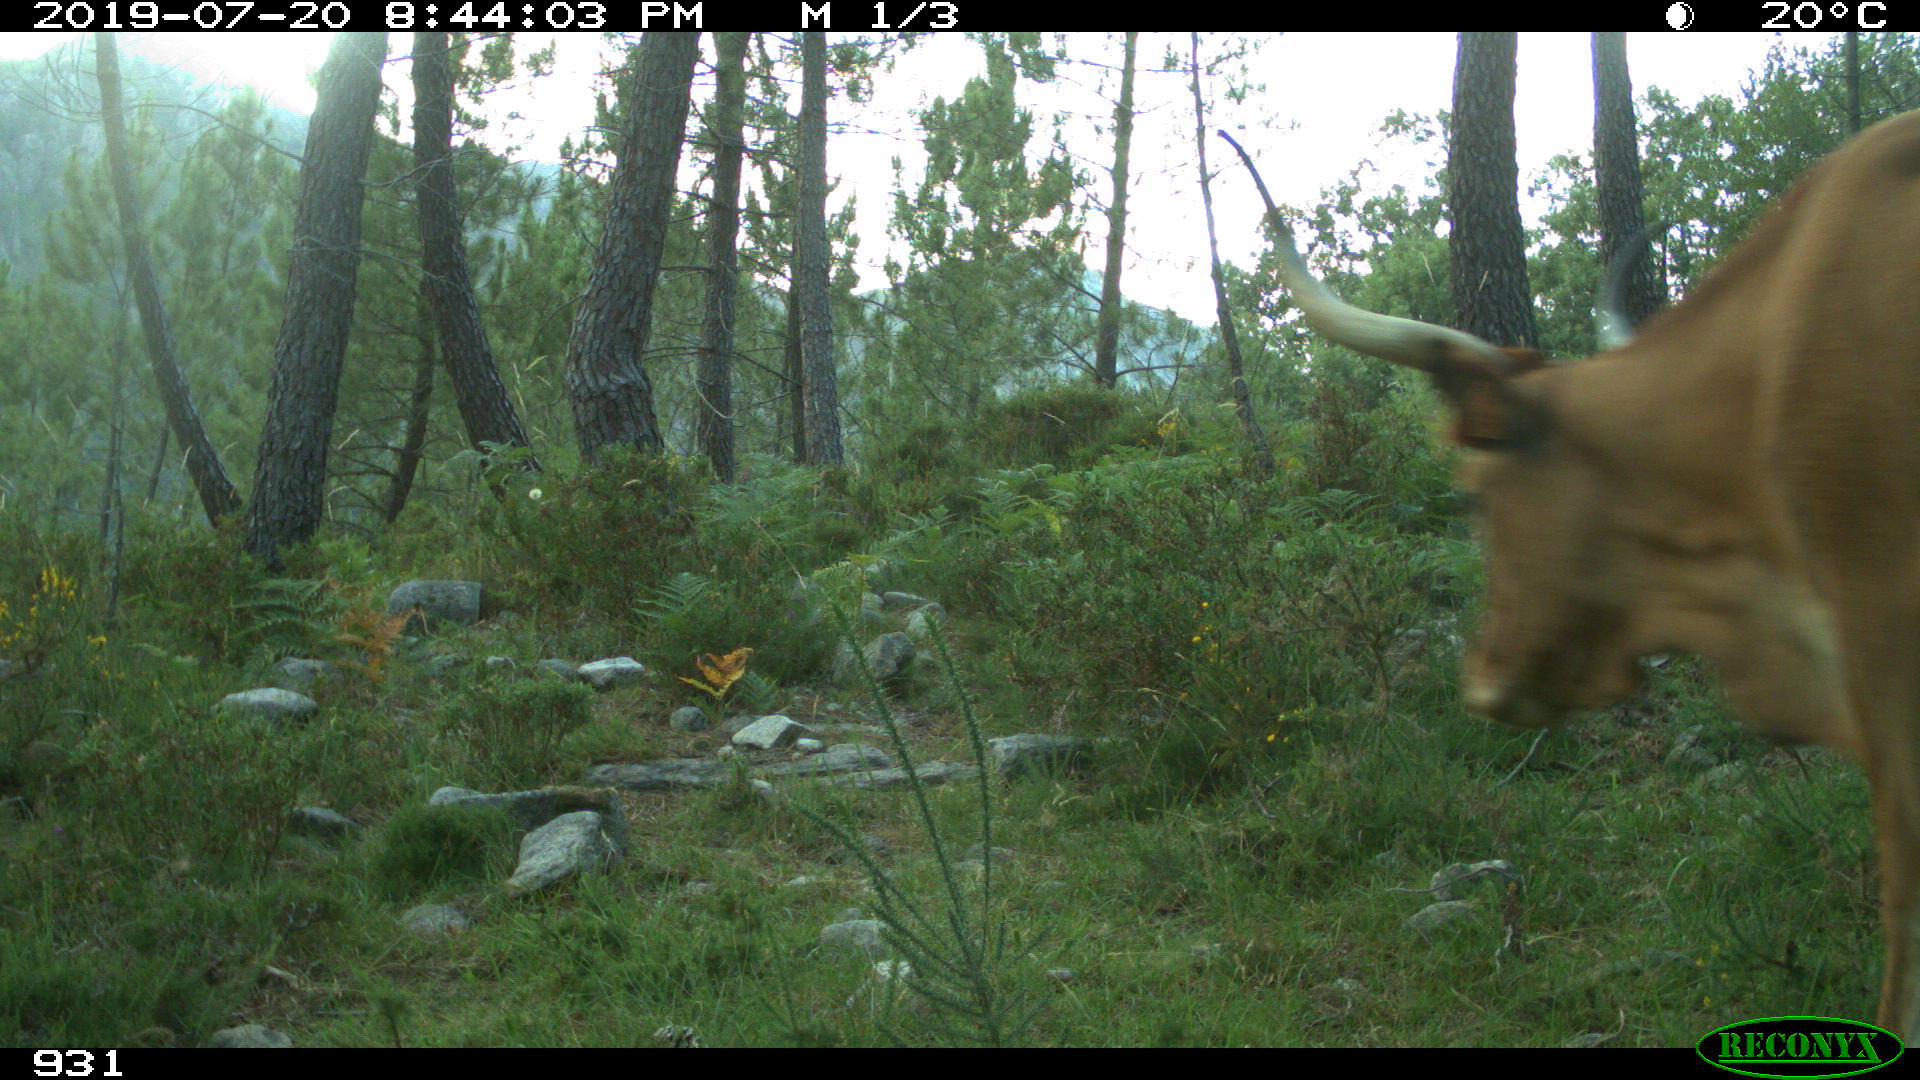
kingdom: Animalia
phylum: Chordata
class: Mammalia
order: Artiodactyla
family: Bovidae
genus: Bos
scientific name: Bos taurus
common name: Domesticated cattle
